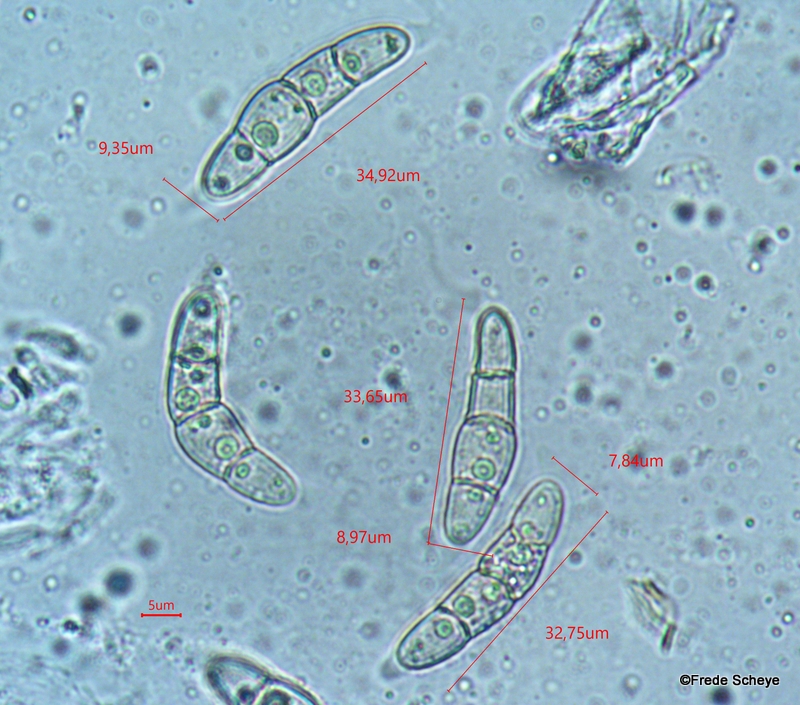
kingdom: Fungi
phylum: Ascomycota
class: Dothideomycetes
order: Pleosporales
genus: Rhopographus
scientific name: Rhopographus filicinus
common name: Bracken map
